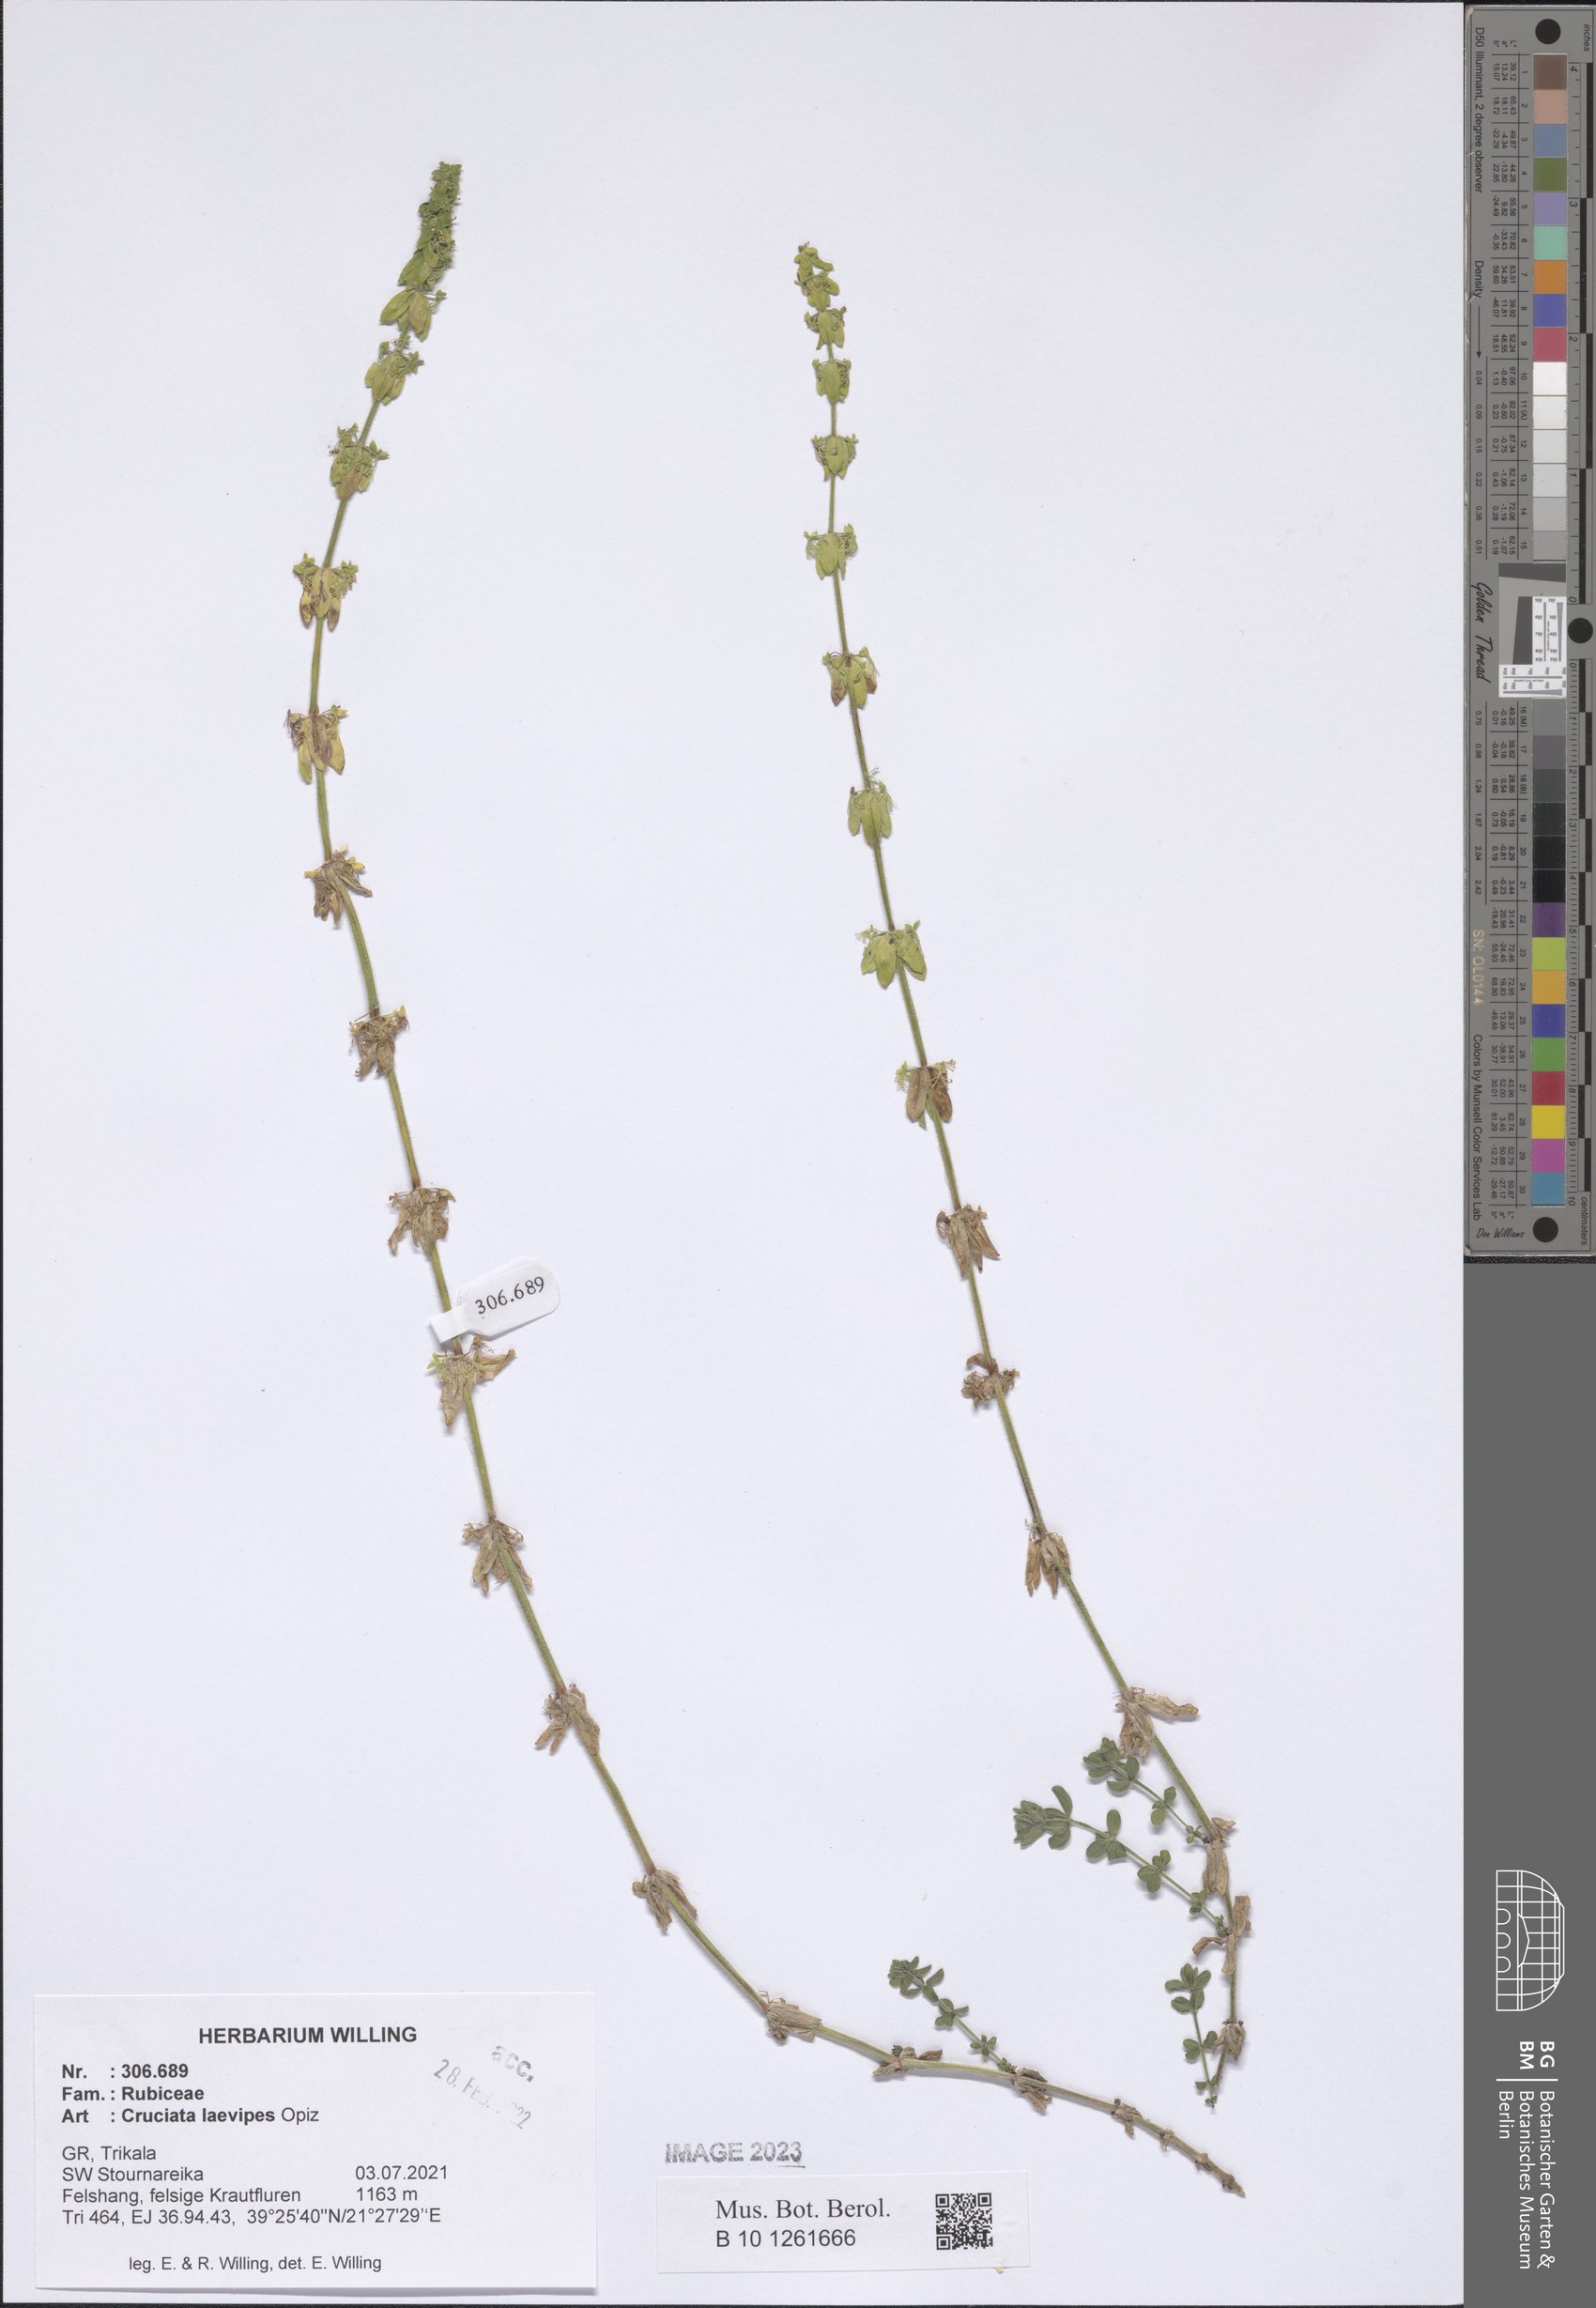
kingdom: Plantae
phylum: Tracheophyta
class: Magnoliopsida
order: Gentianales
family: Rubiaceae
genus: Cruciata
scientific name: Cruciata laevipes
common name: Crosswort
